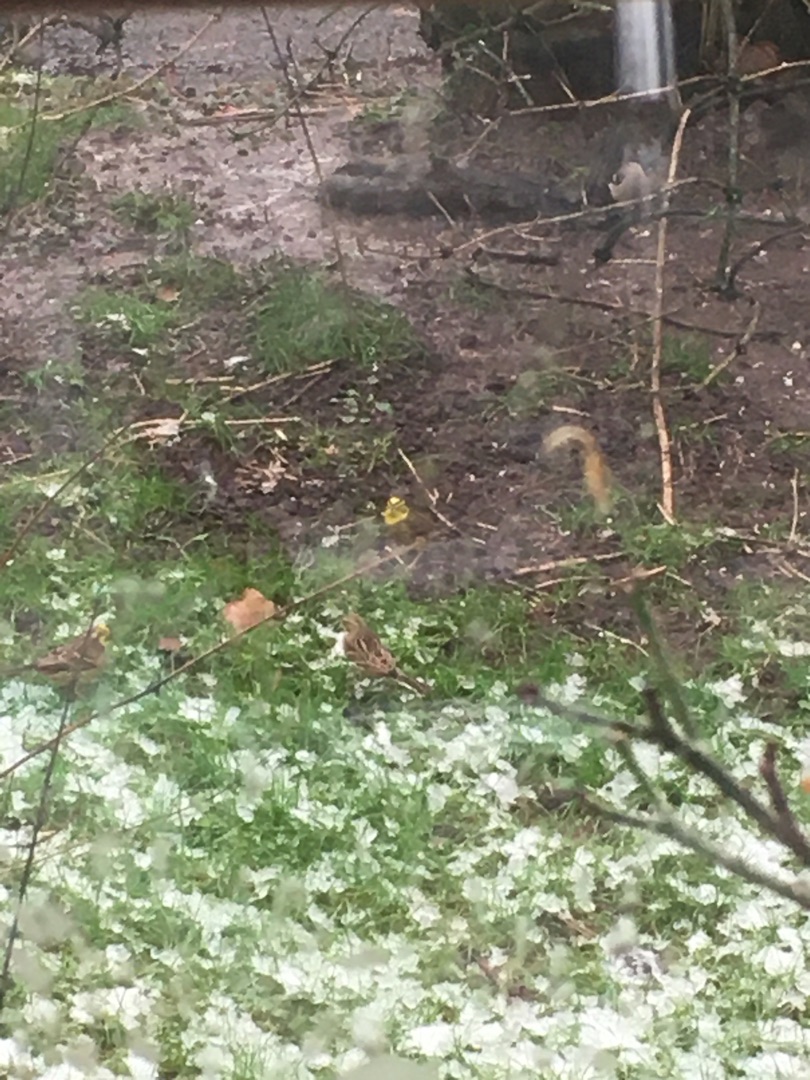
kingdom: Animalia
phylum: Chordata
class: Aves
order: Passeriformes
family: Emberizidae
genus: Emberiza
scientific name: Emberiza citrinella
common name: Gulspurv
